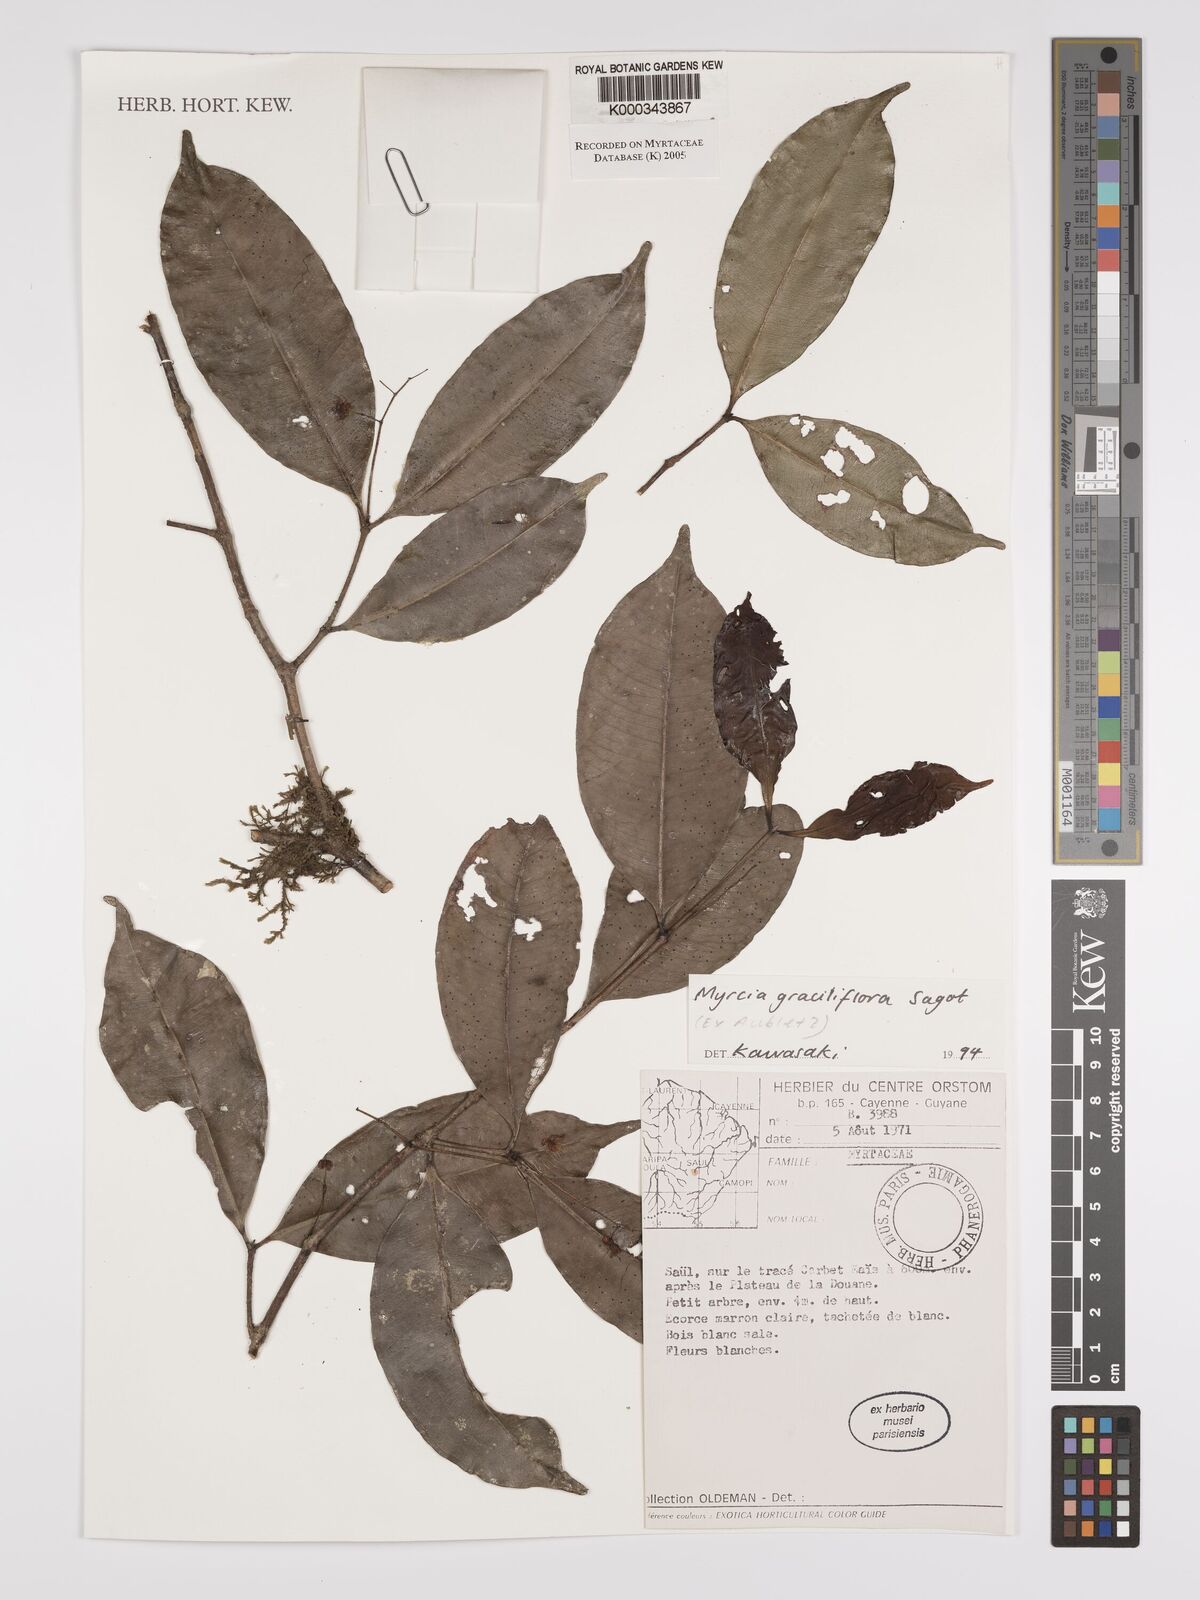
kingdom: Plantae
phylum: Tracheophyta
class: Magnoliopsida
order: Myrtales
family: Myrtaceae
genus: Myrcia
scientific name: Myrcia graciliflora
